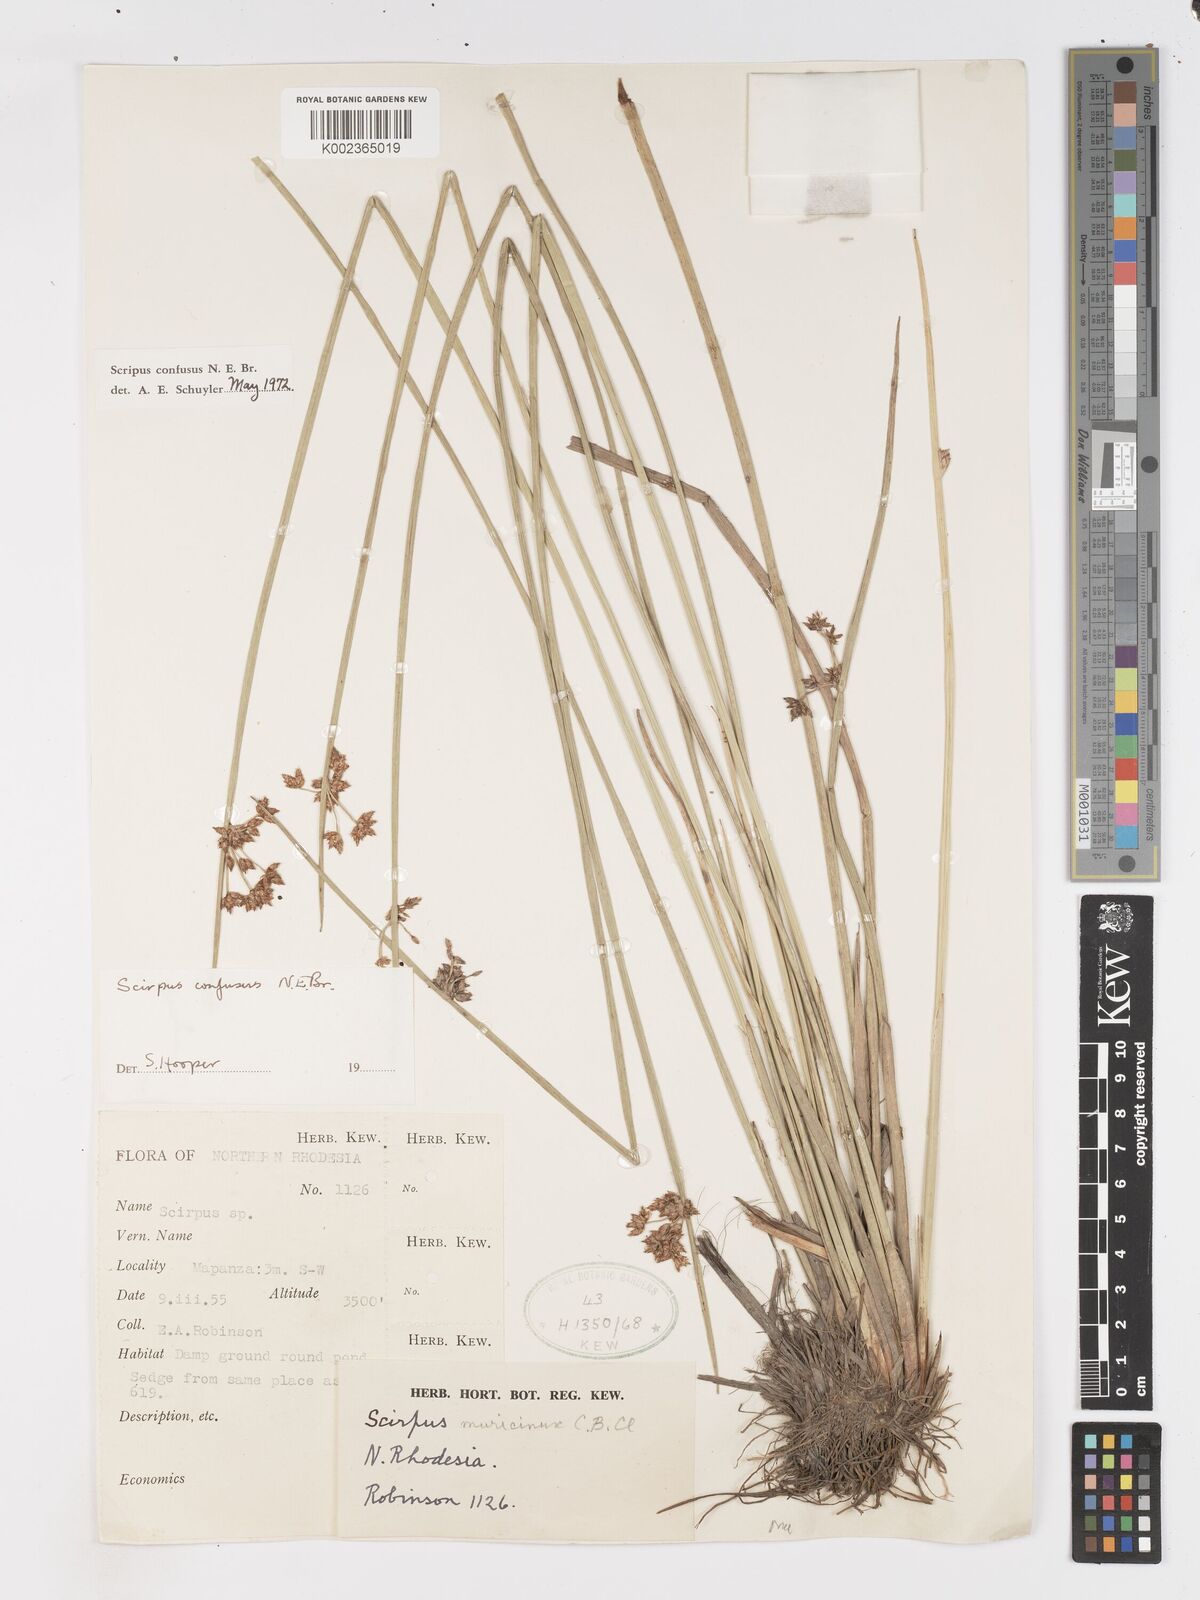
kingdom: Plantae
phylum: Tracheophyta
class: Liliopsida
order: Poales
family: Cyperaceae
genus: Schoenoplectiella
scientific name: Schoenoplectiella confusa
